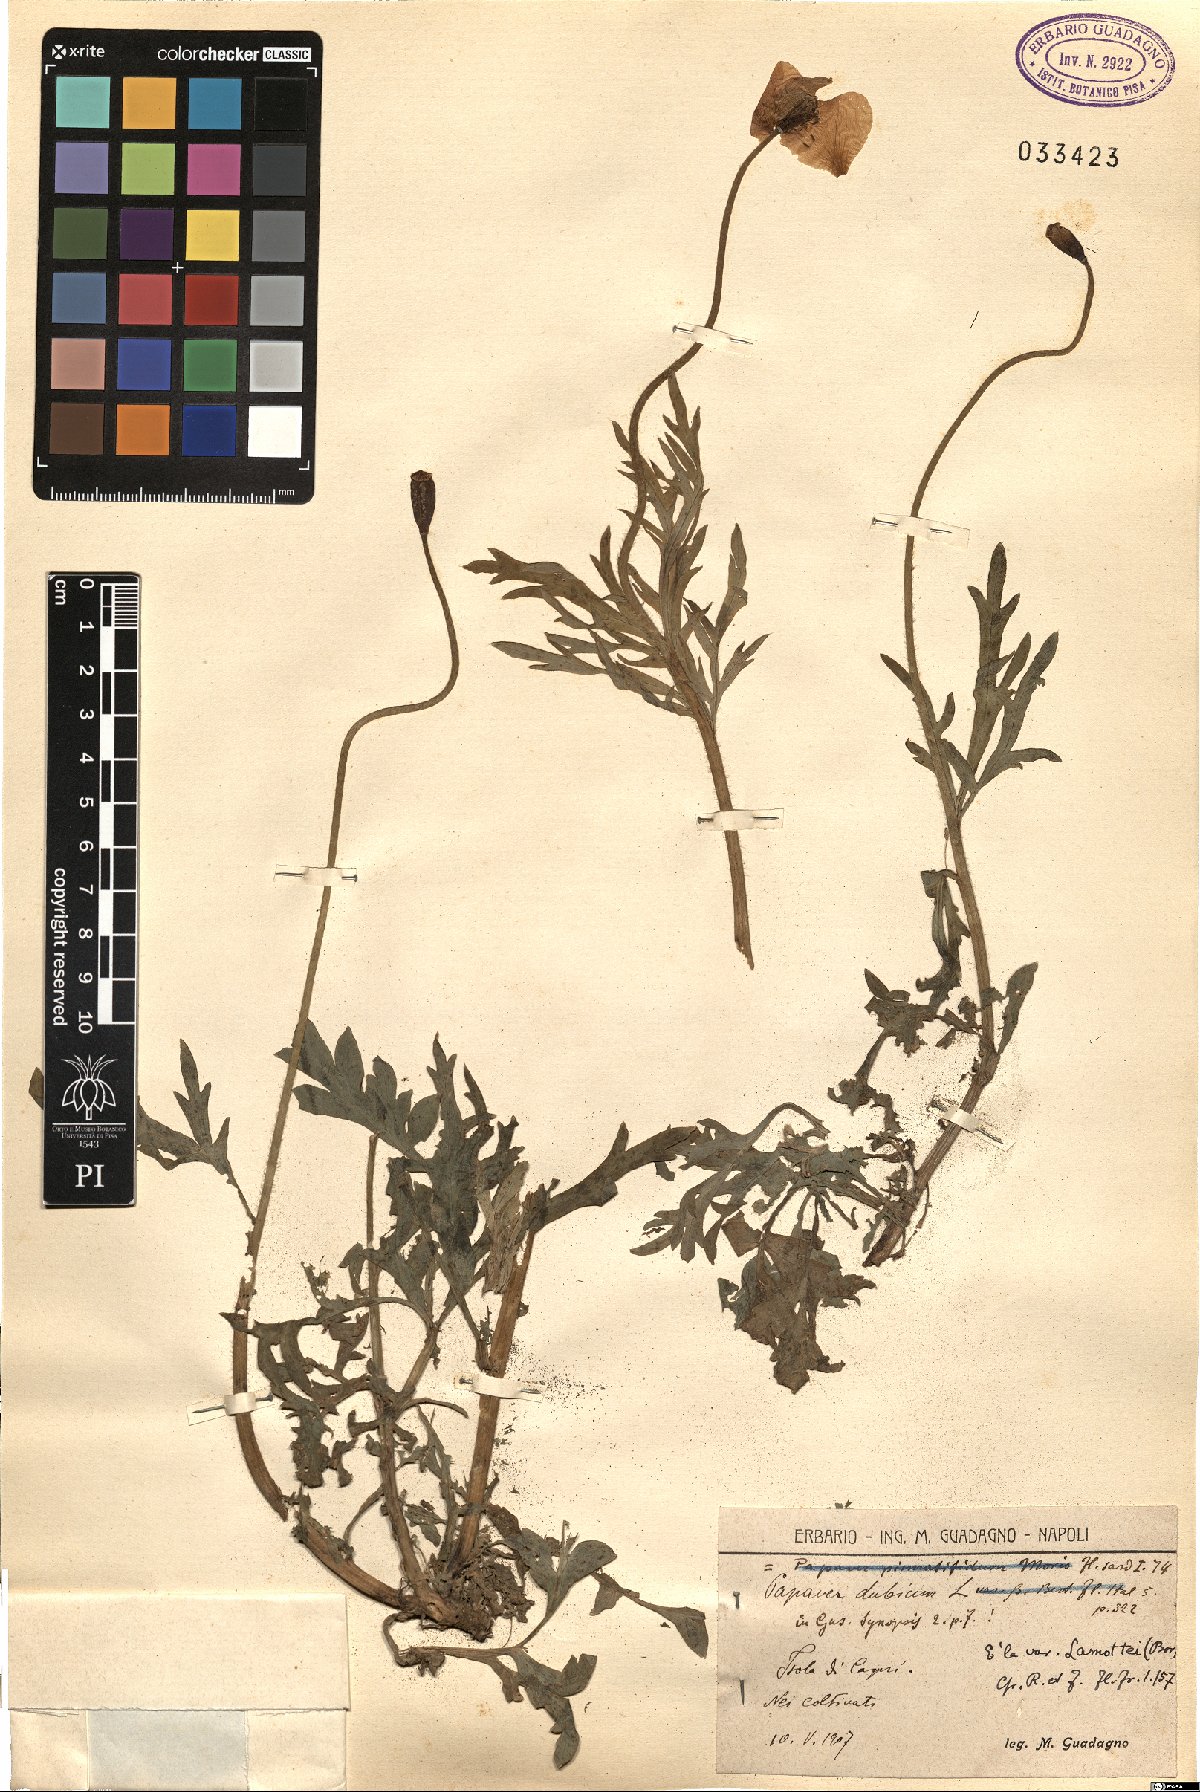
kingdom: Plantae
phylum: Tracheophyta
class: Magnoliopsida
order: Ranunculales
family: Papaveraceae
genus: Papaver
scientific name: Papaver dubium
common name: Long-headed poppy
